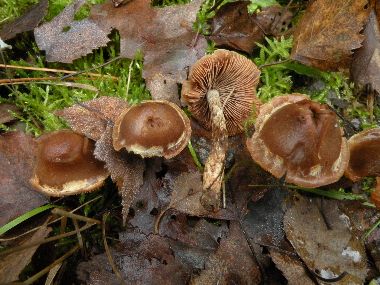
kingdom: Fungi
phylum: Basidiomycota
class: Agaricomycetes
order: Agaricales
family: Hymenogastraceae
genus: Hebeloma
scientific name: Hebeloma mesophaeum
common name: lerbrun tåreblad
